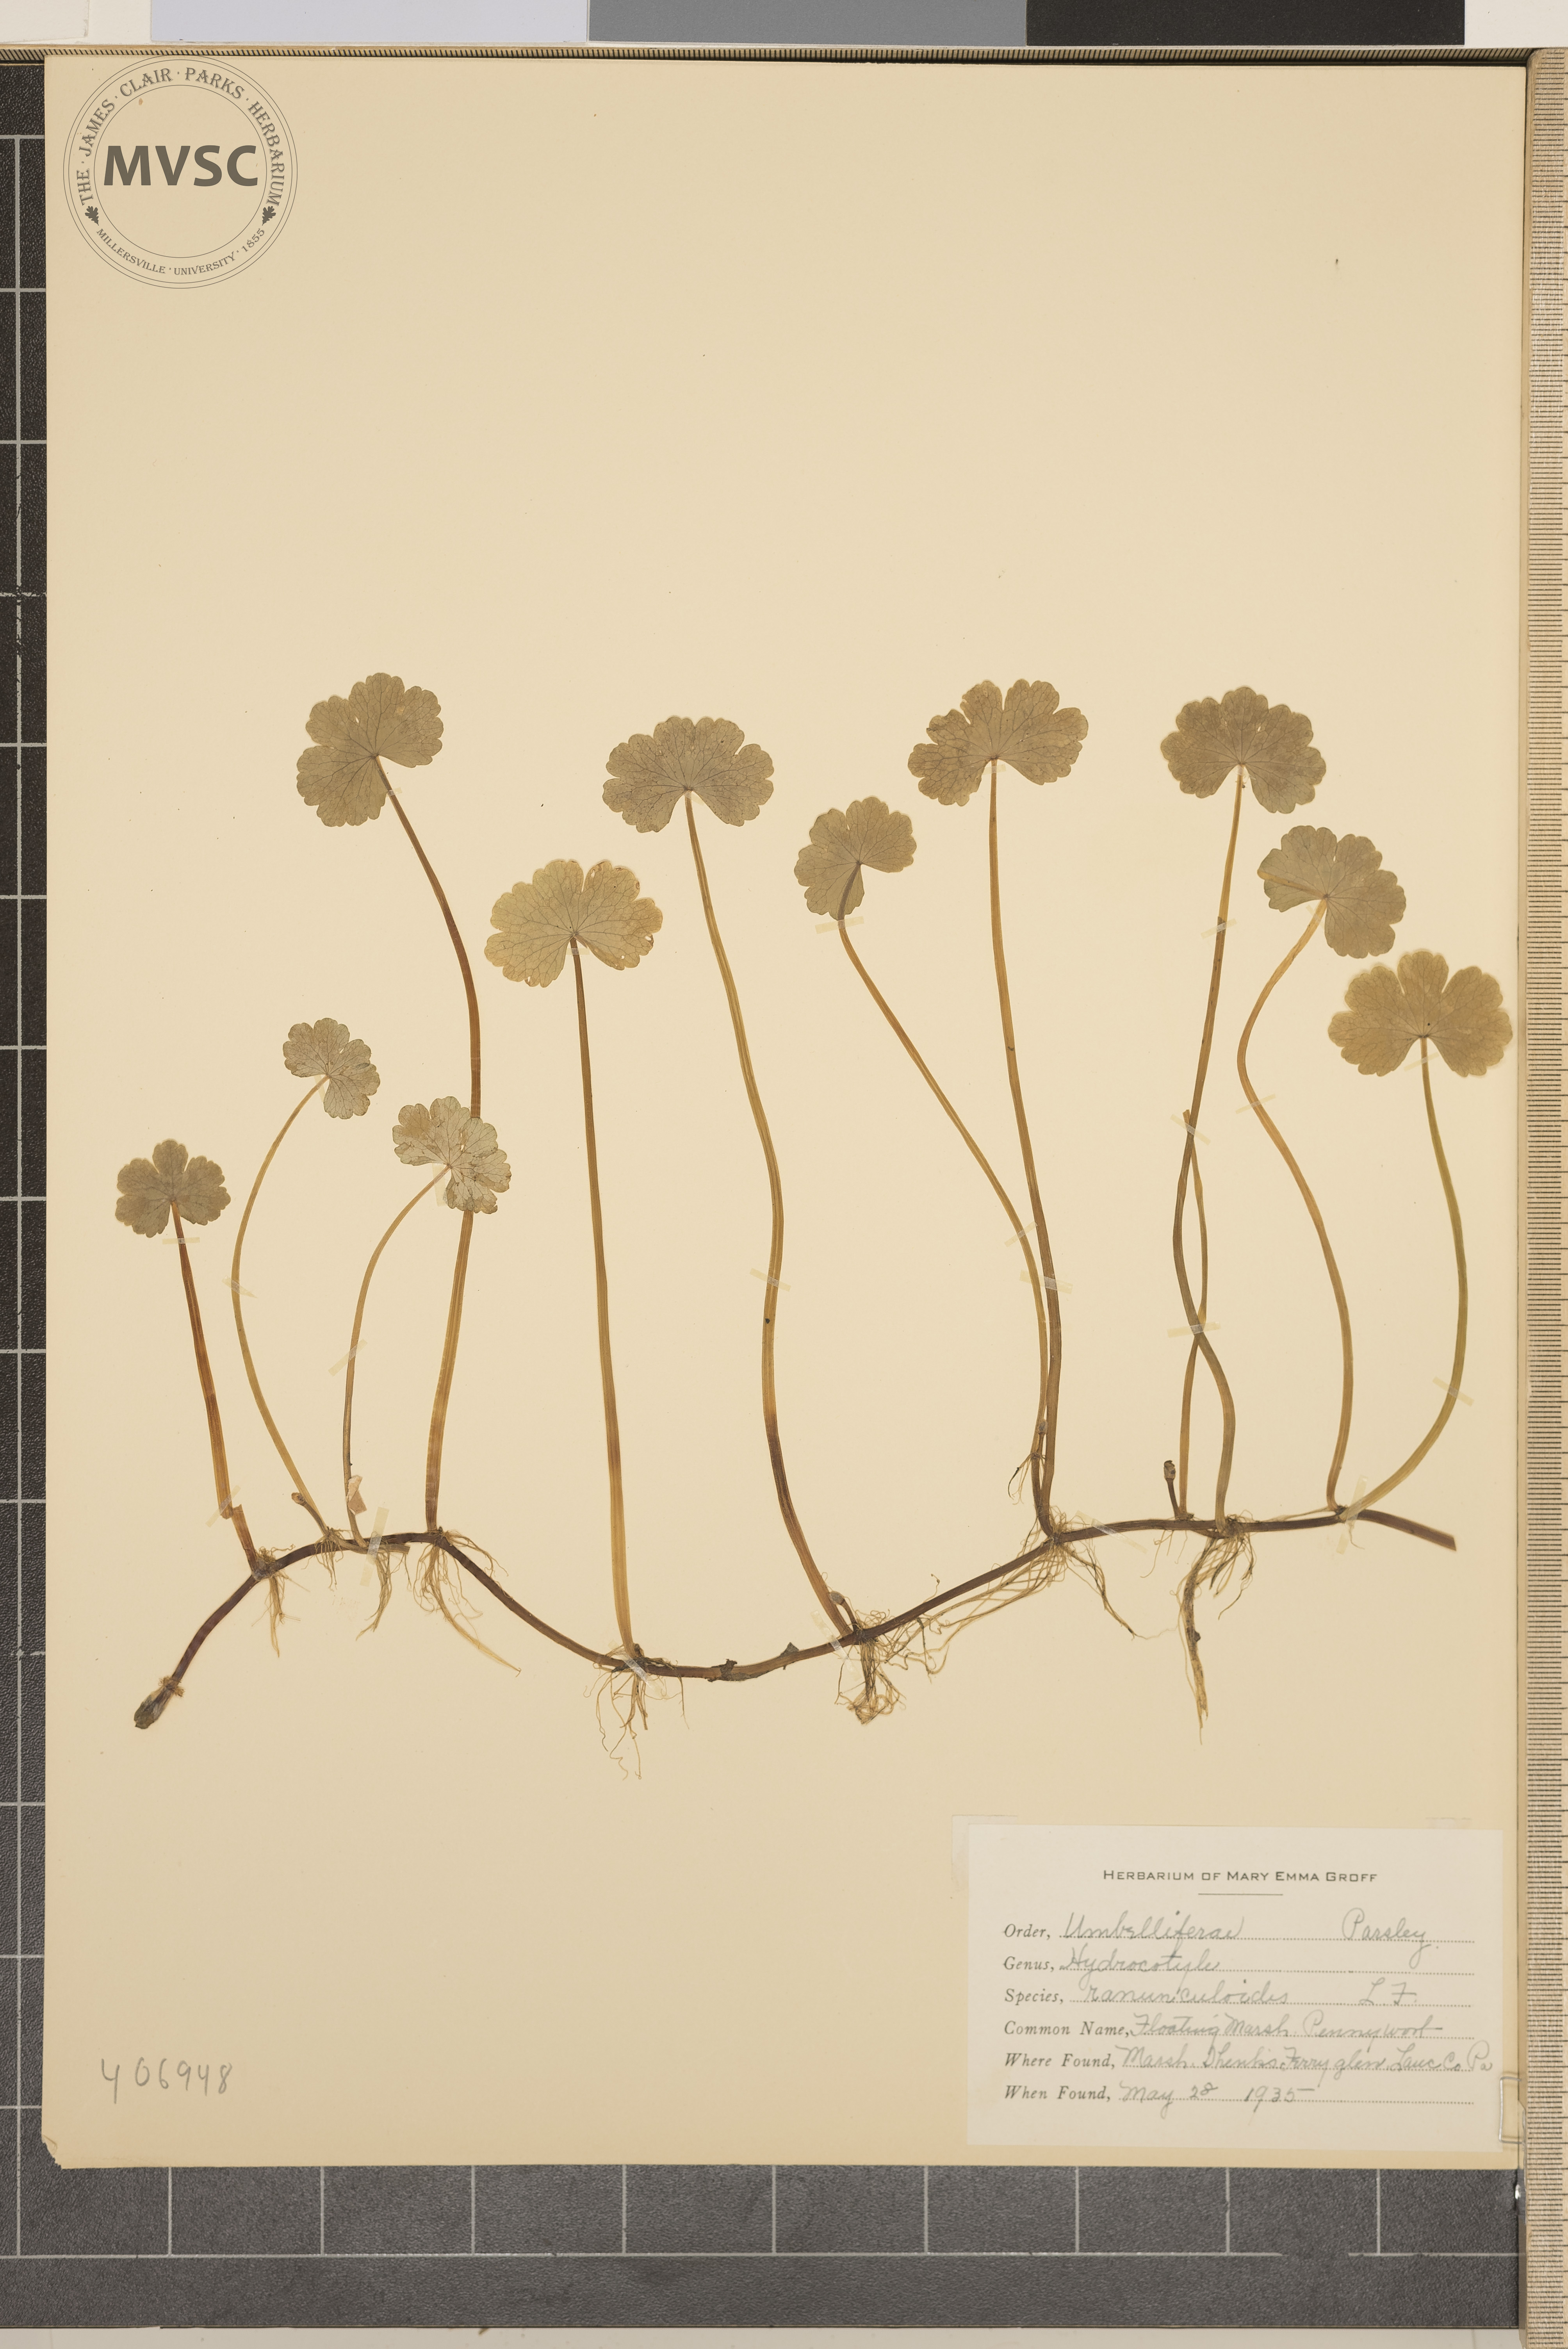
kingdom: Plantae
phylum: Tracheophyta
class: Magnoliopsida
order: Apiales
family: Araliaceae
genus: Hydrocotyle
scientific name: Hydrocotyle ranunculoides
